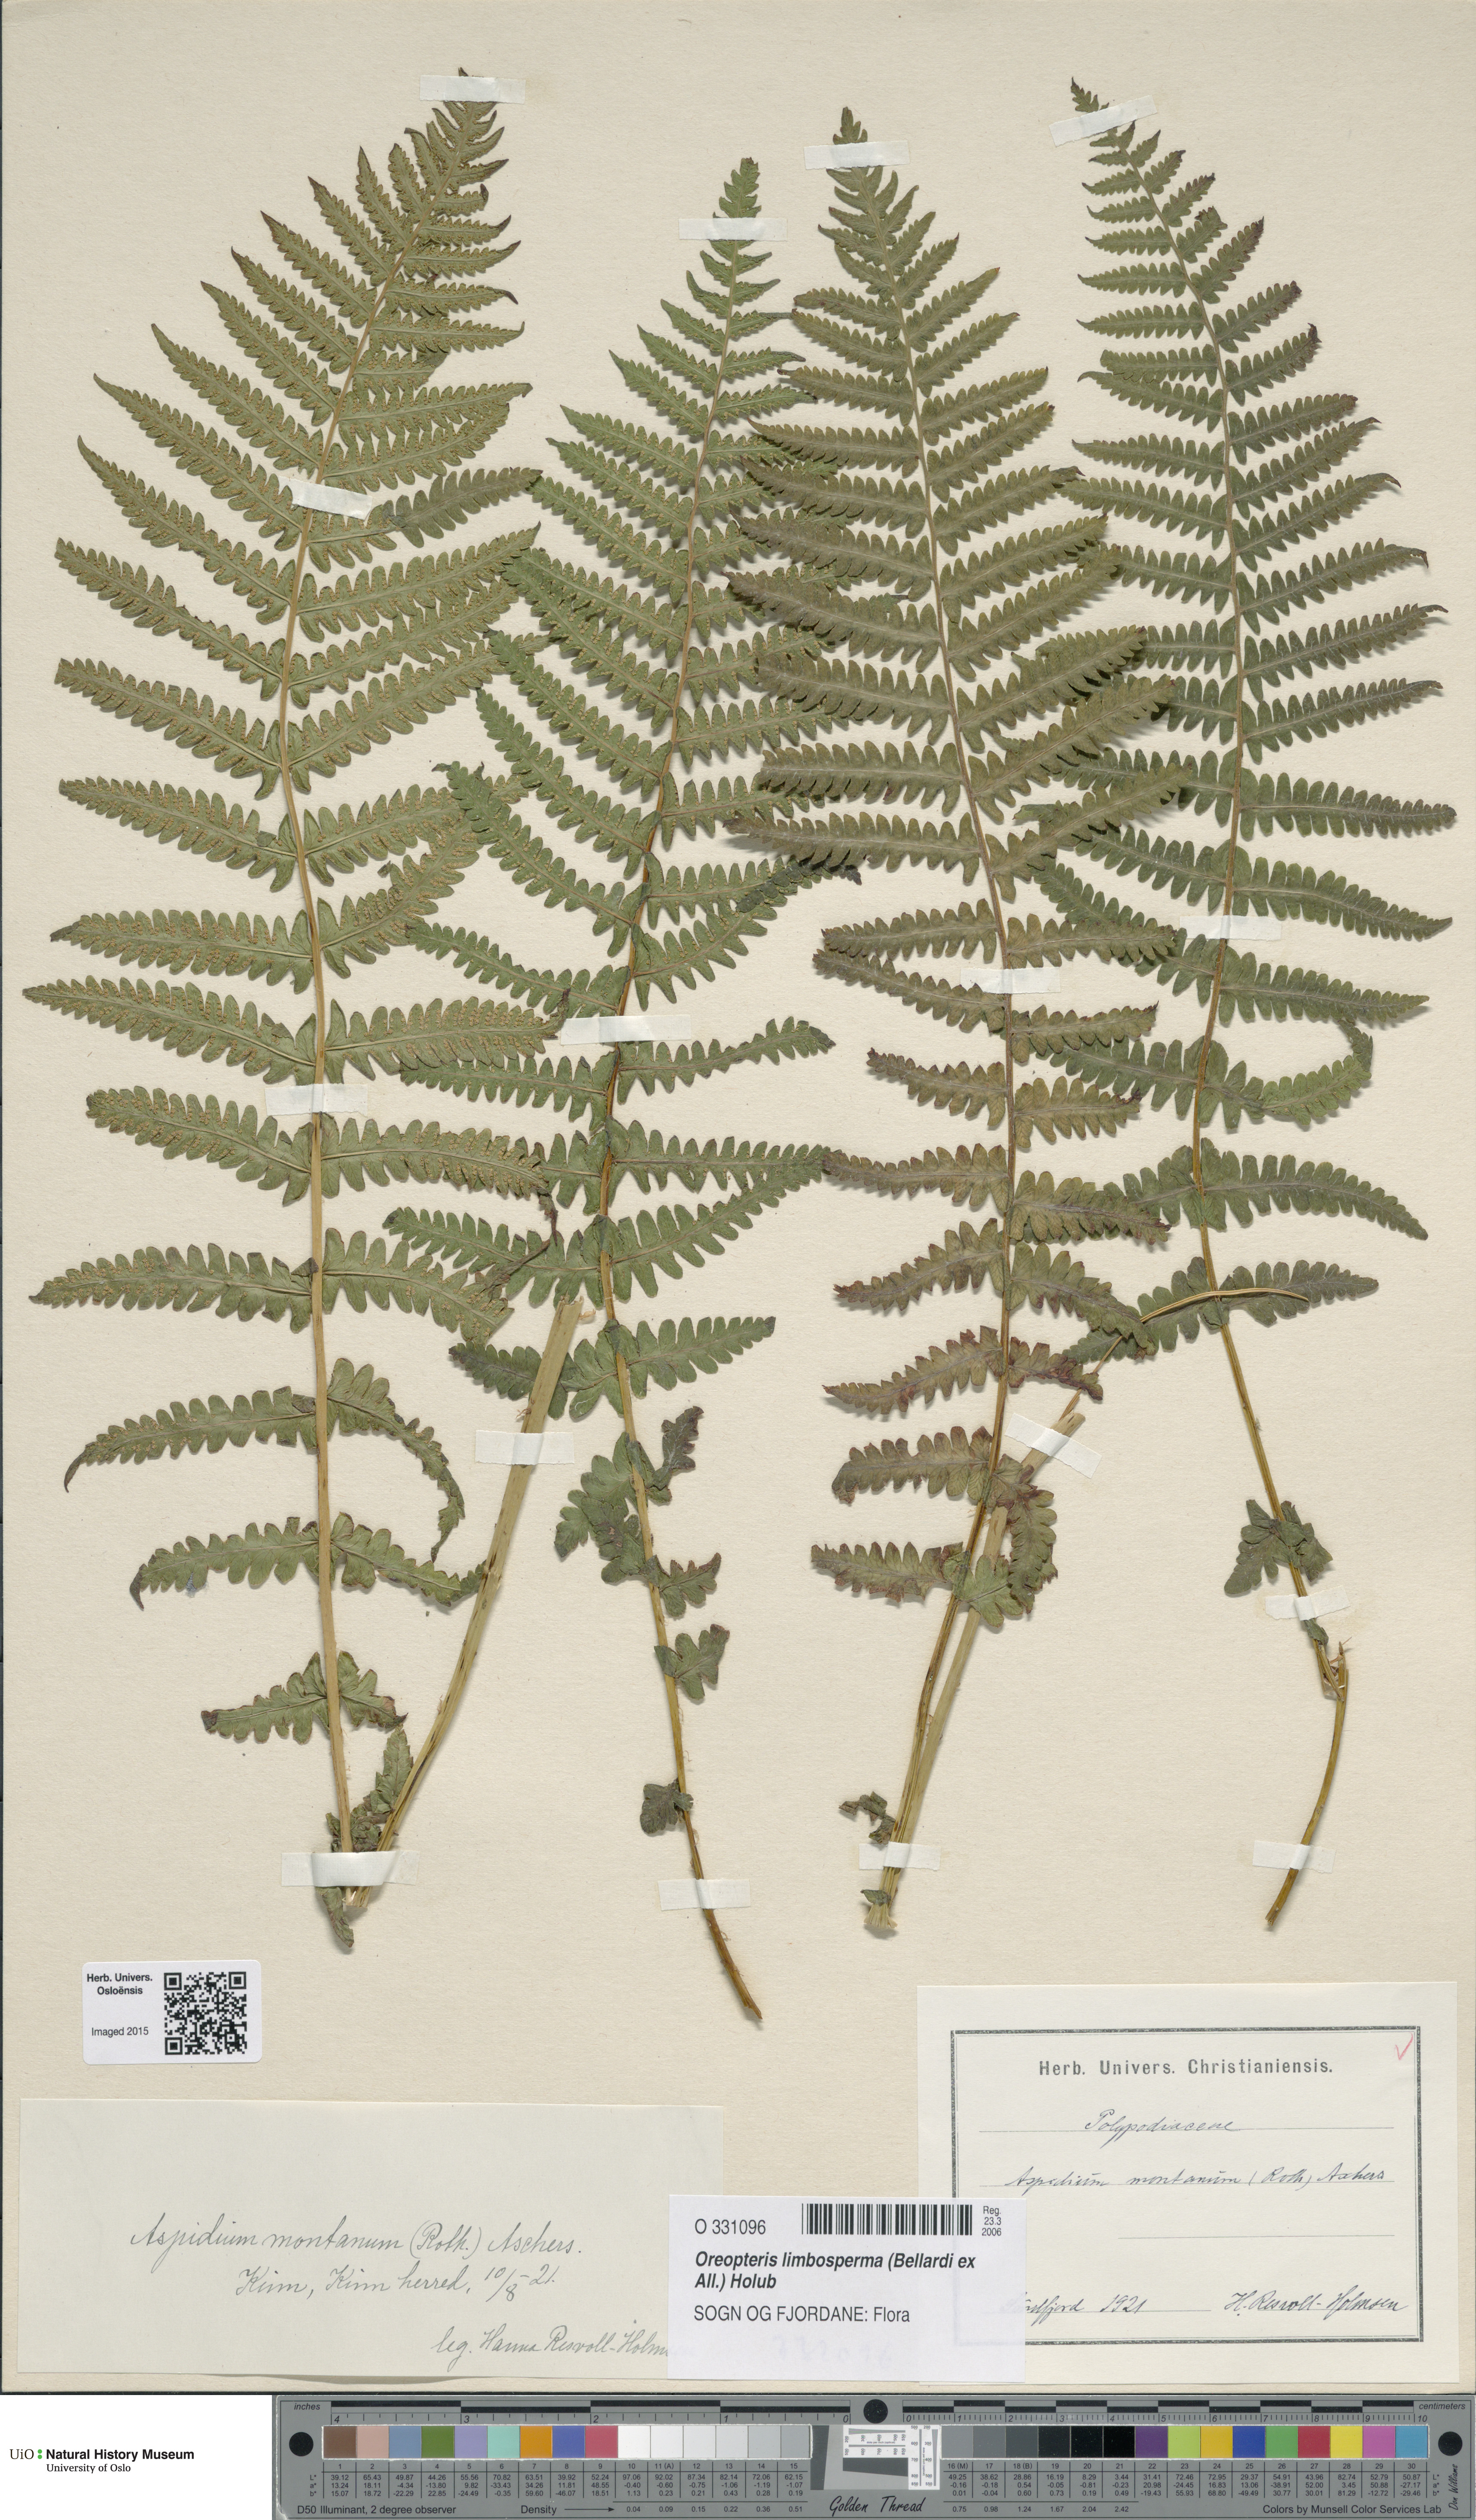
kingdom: Plantae
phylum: Tracheophyta
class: Polypodiopsida
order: Polypodiales
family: Thelypteridaceae
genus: Oreopteris
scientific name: Oreopteris limbosperma
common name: Lemon-scented fern
